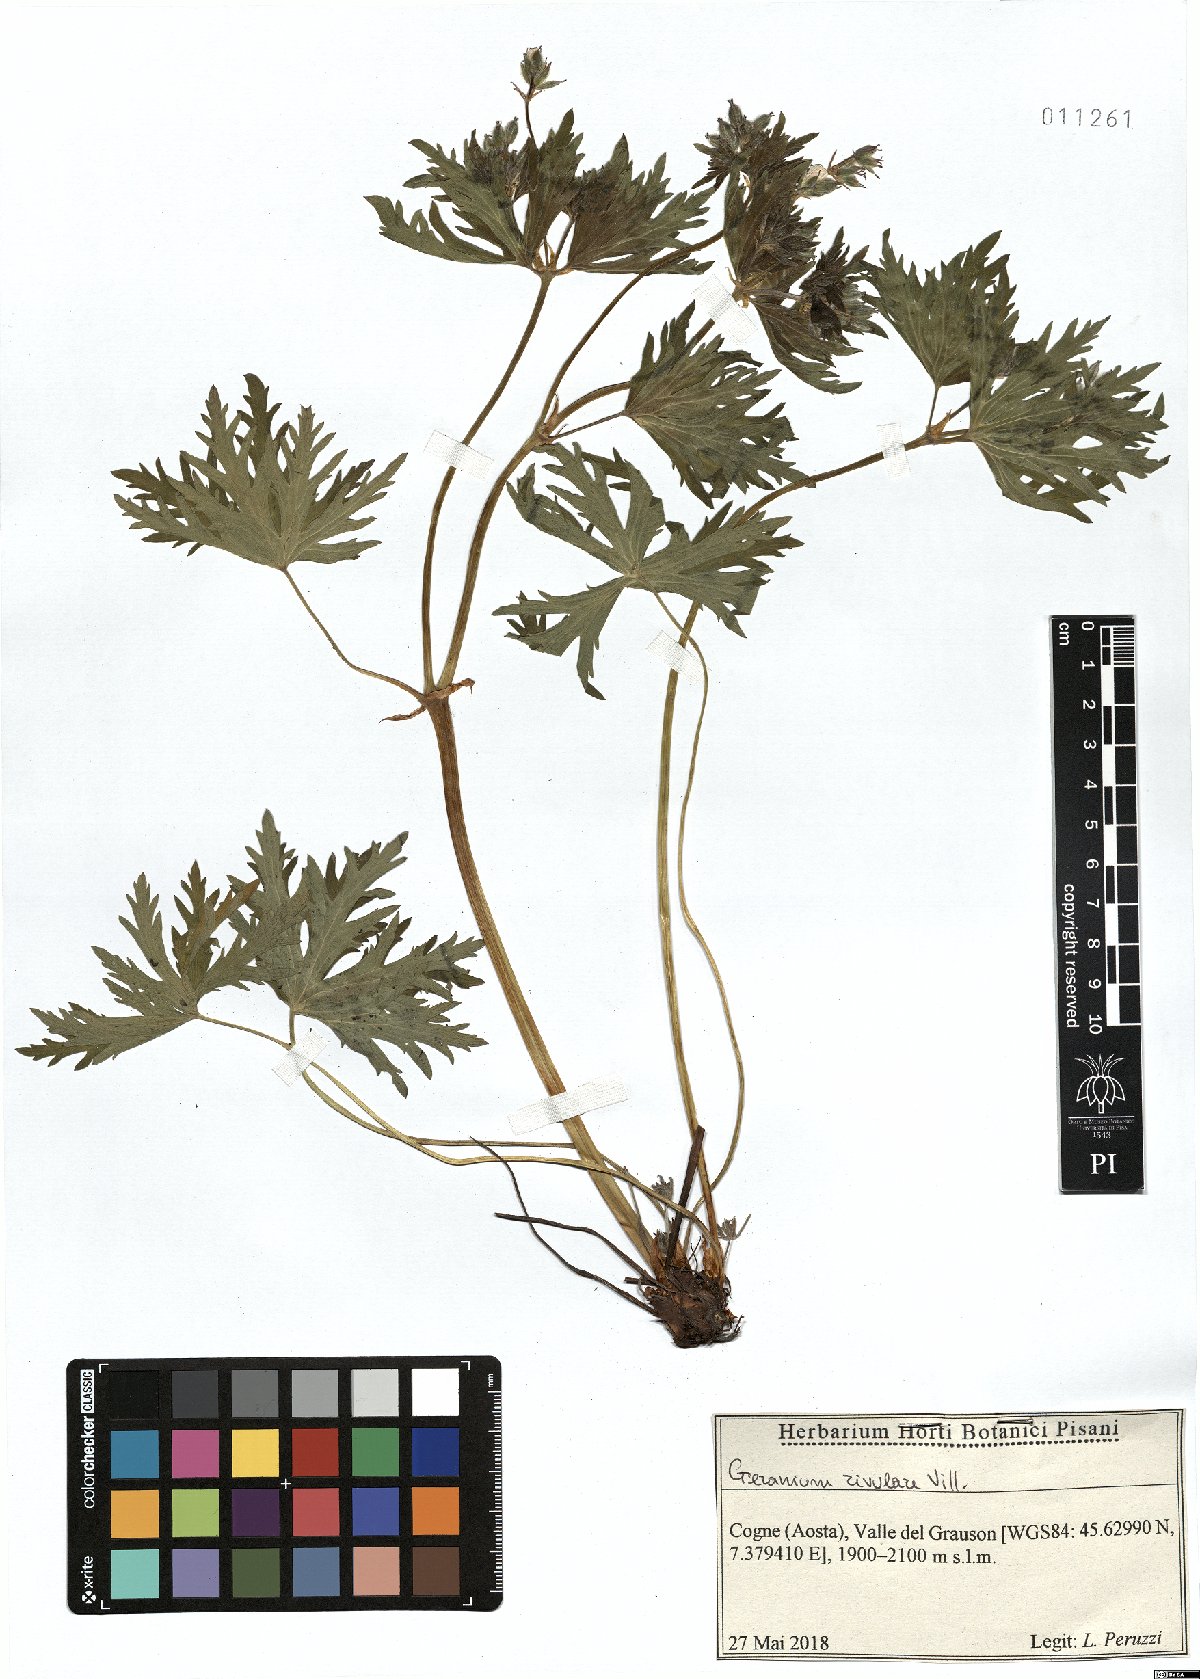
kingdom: Plantae
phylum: Tracheophyta
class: Magnoliopsida
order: Geraniales
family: Geraniaceae
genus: Geranium
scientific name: Geranium rivulare
